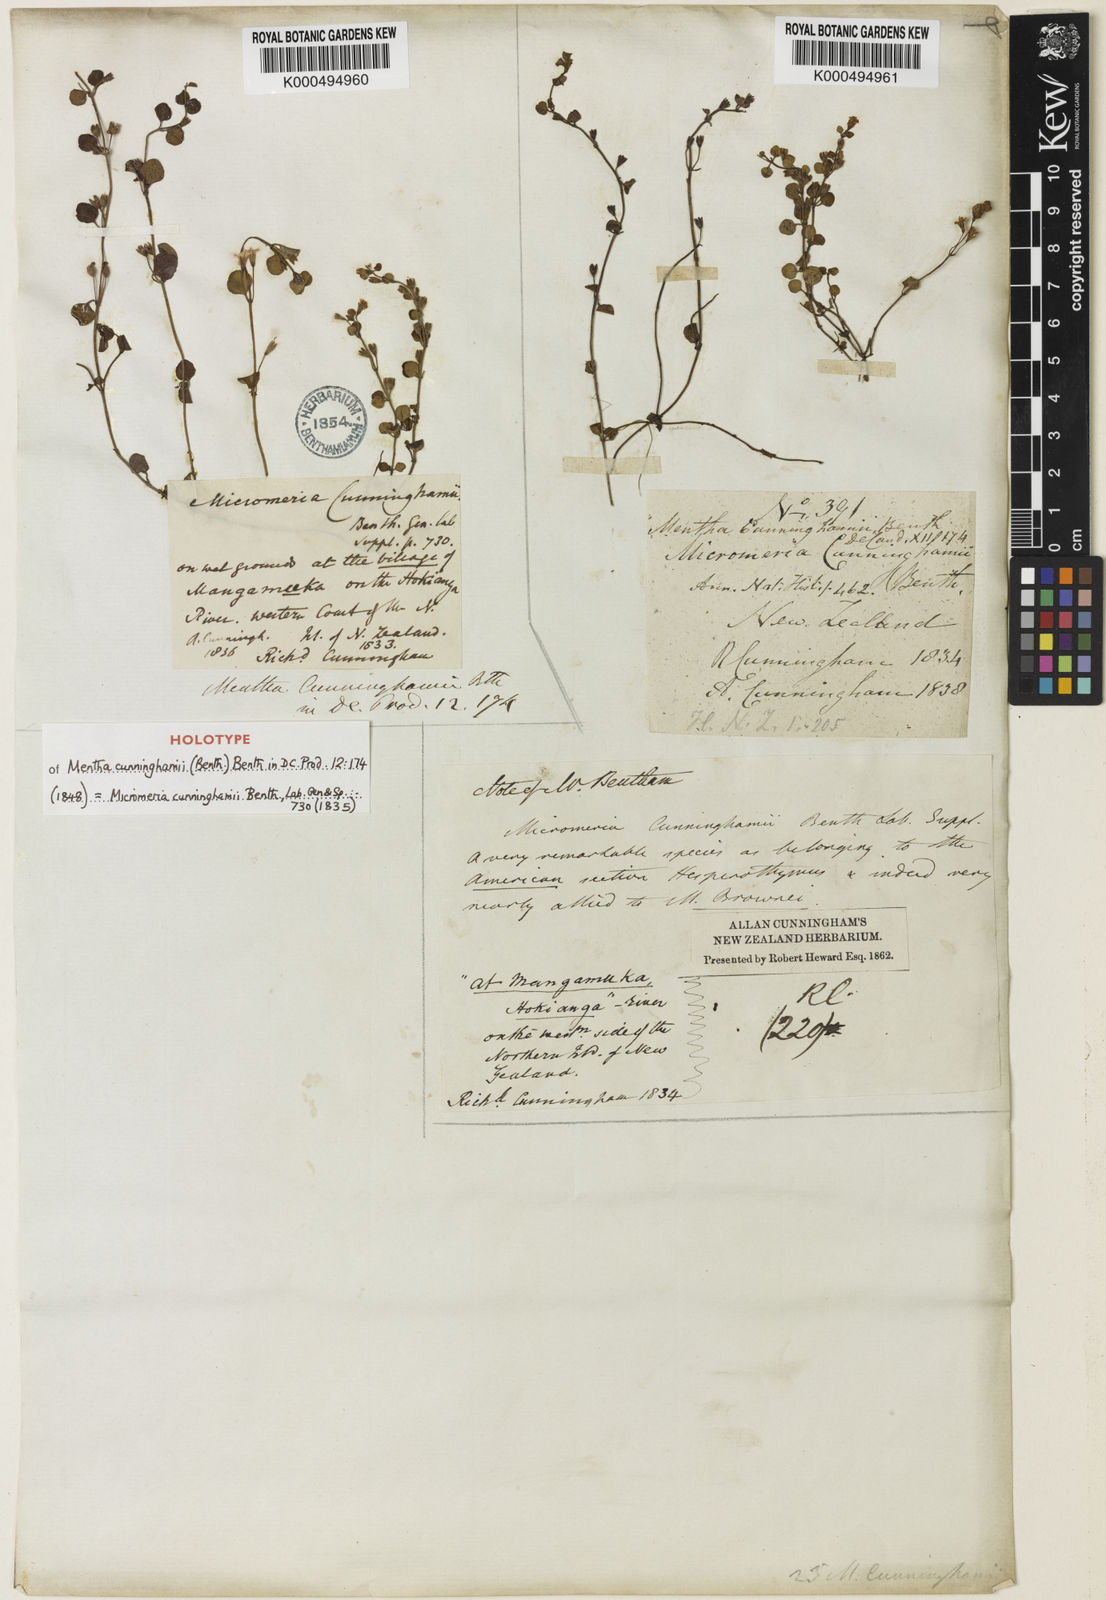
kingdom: Plantae
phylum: Tracheophyta
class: Magnoliopsida
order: Lamiales
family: Lamiaceae
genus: Mentha
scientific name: Mentha cunninghamii
